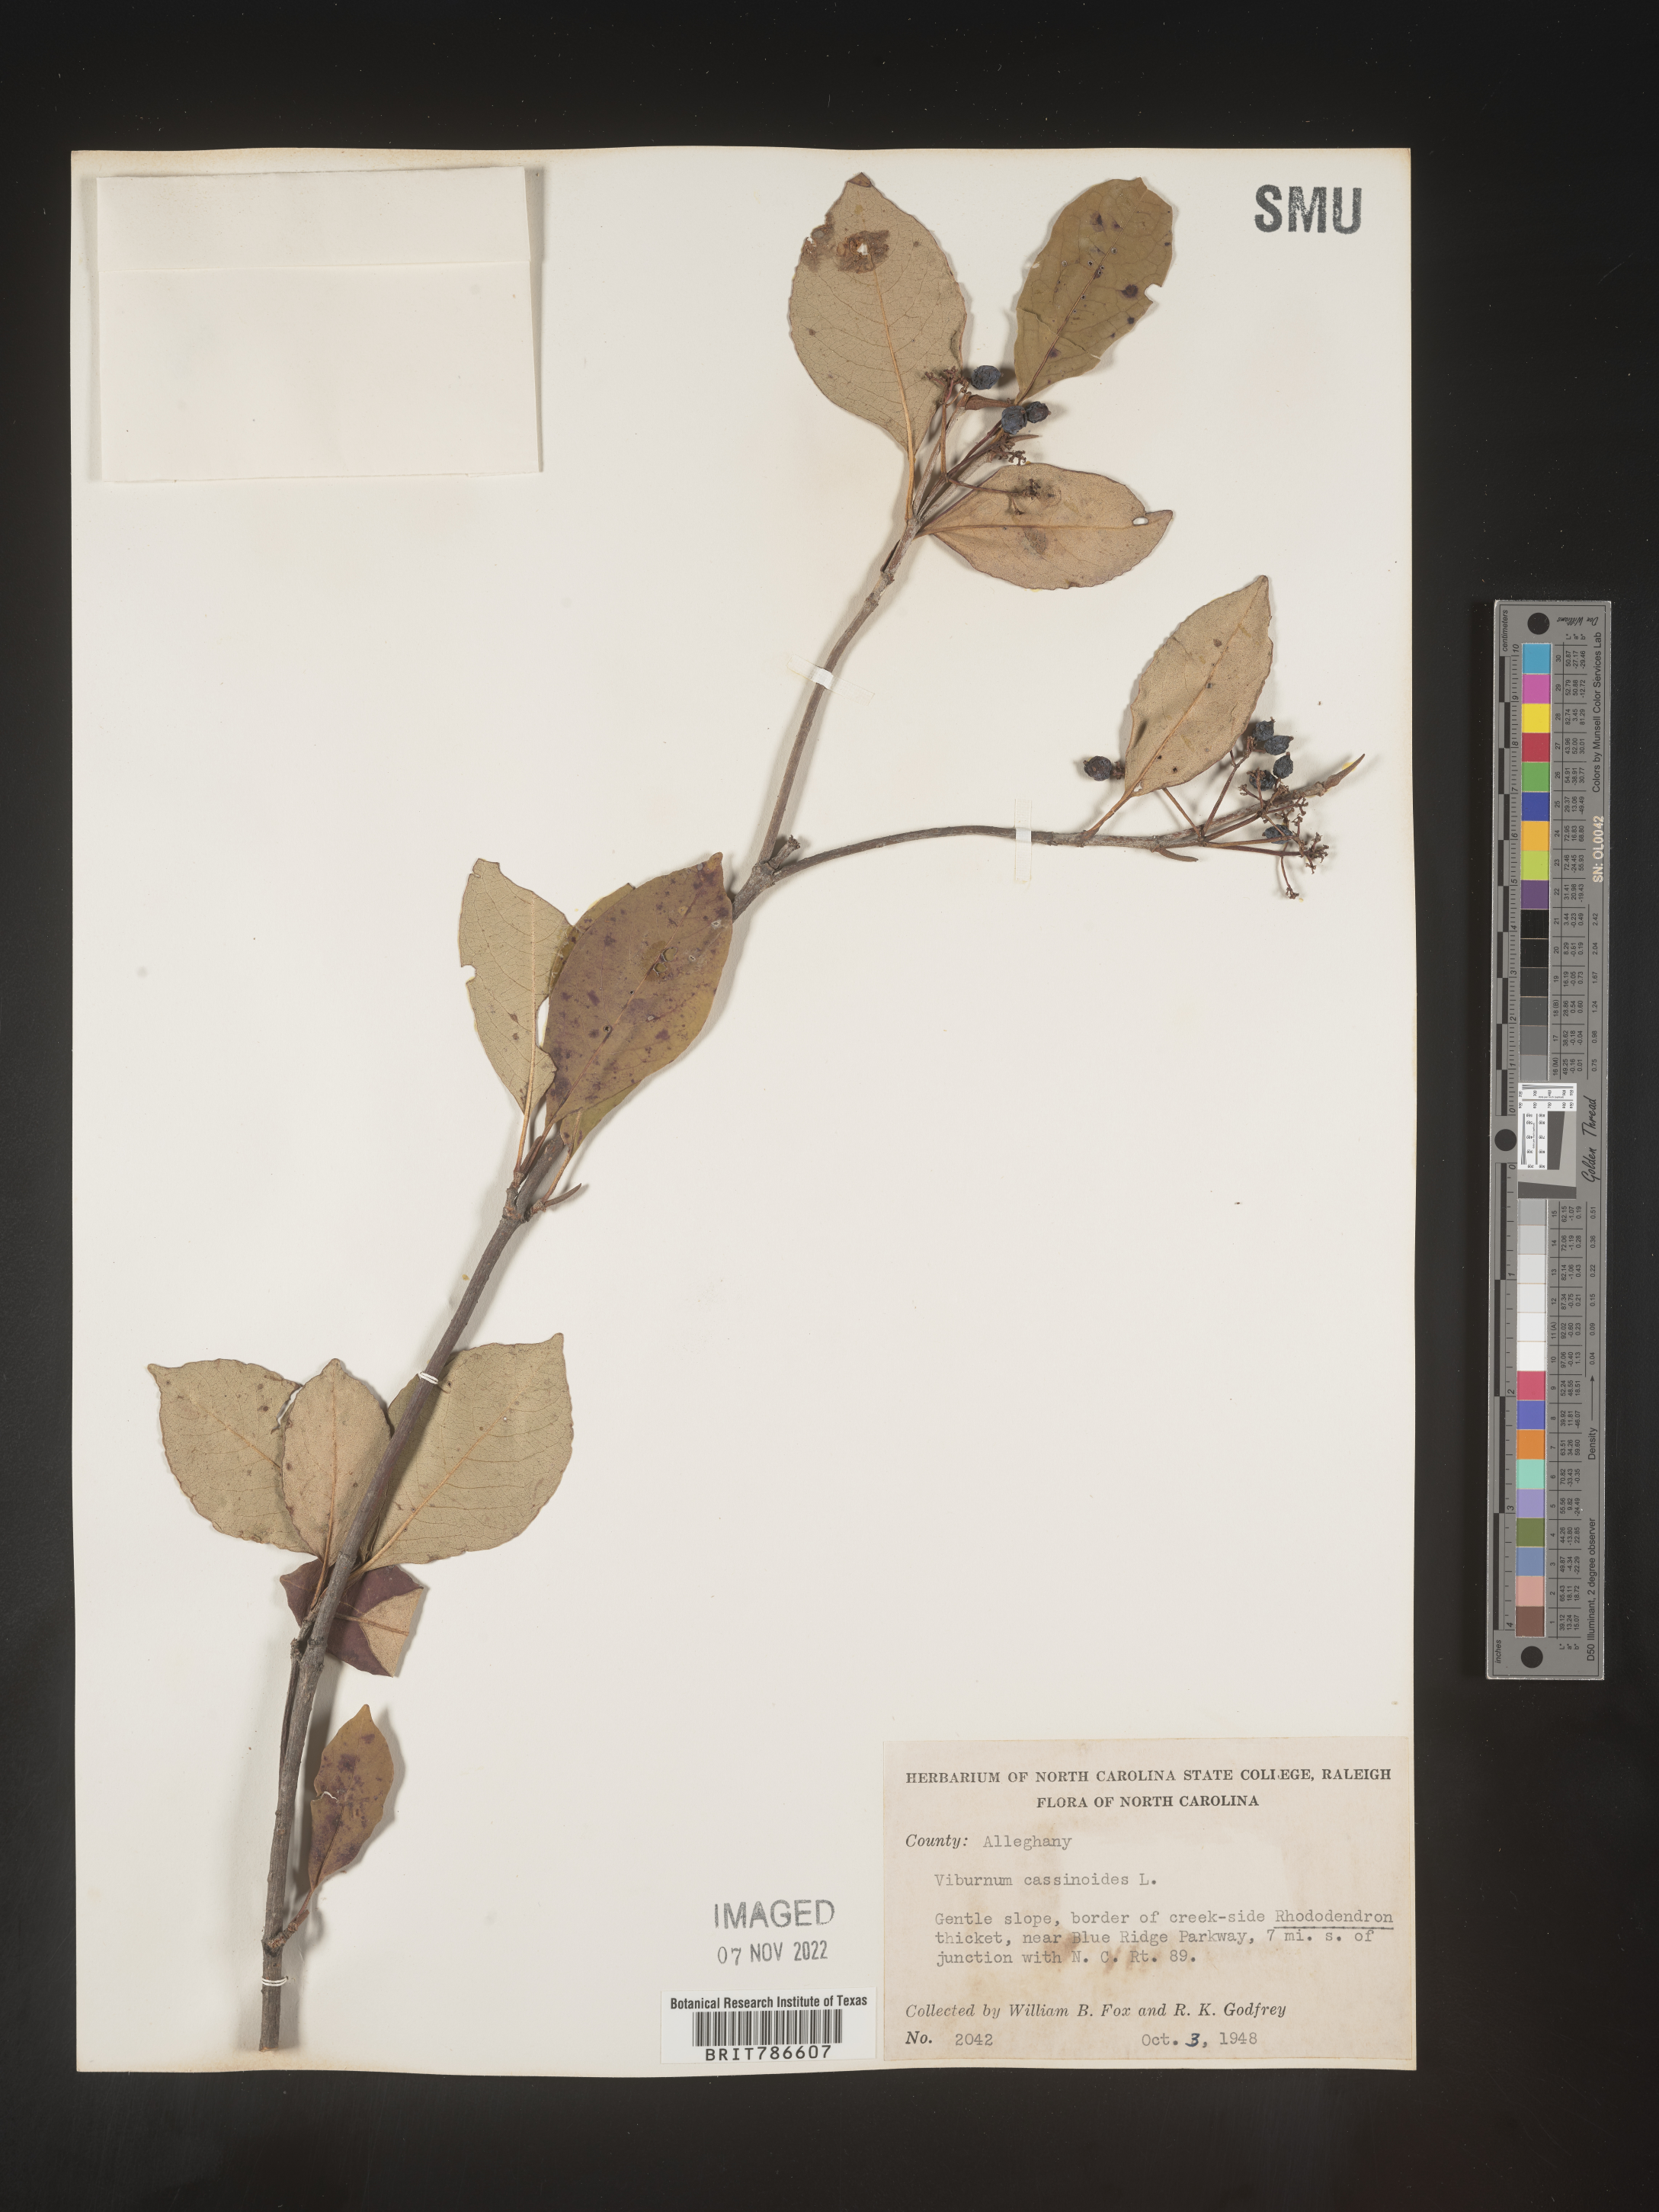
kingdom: Plantae
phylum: Tracheophyta
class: Magnoliopsida
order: Dipsacales
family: Viburnaceae
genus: Viburnum
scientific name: Viburnum cassinoides
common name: Swamp haw
